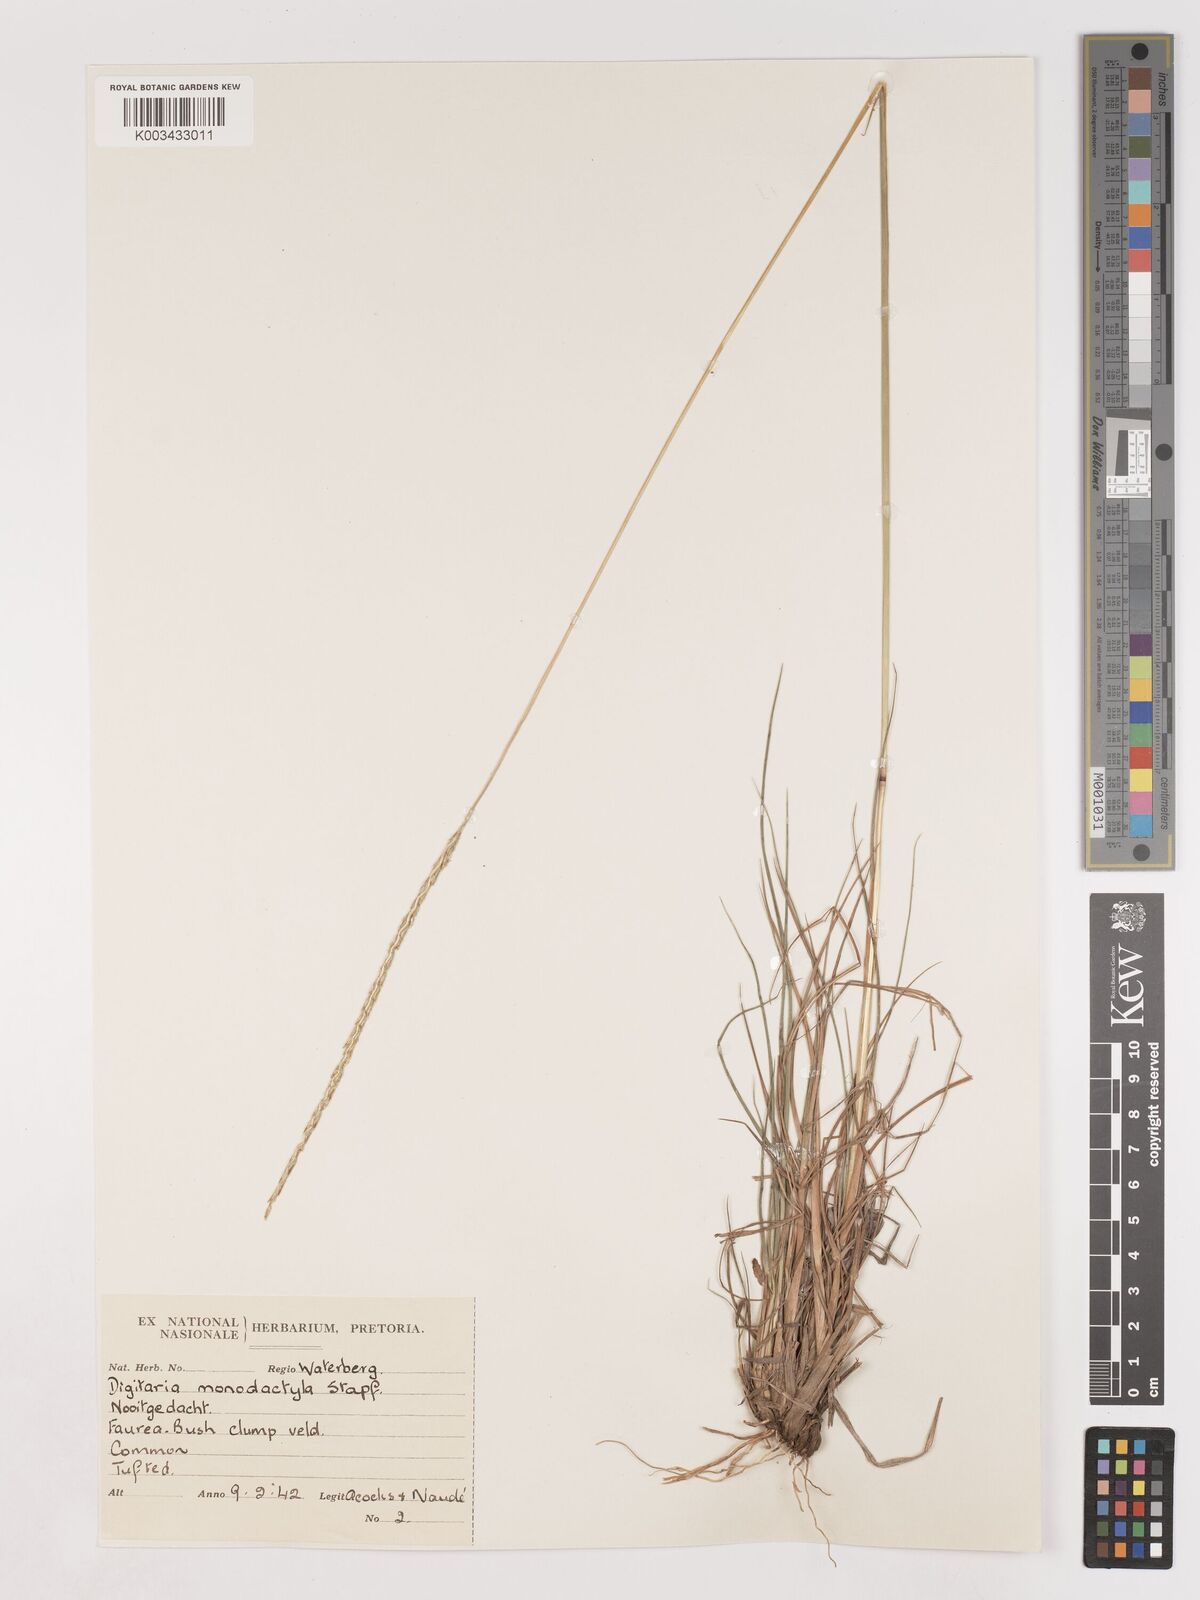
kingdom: Plantae
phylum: Tracheophyta
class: Liliopsida
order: Poales
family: Poaceae
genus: Digitaria
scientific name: Digitaria monodactyla
